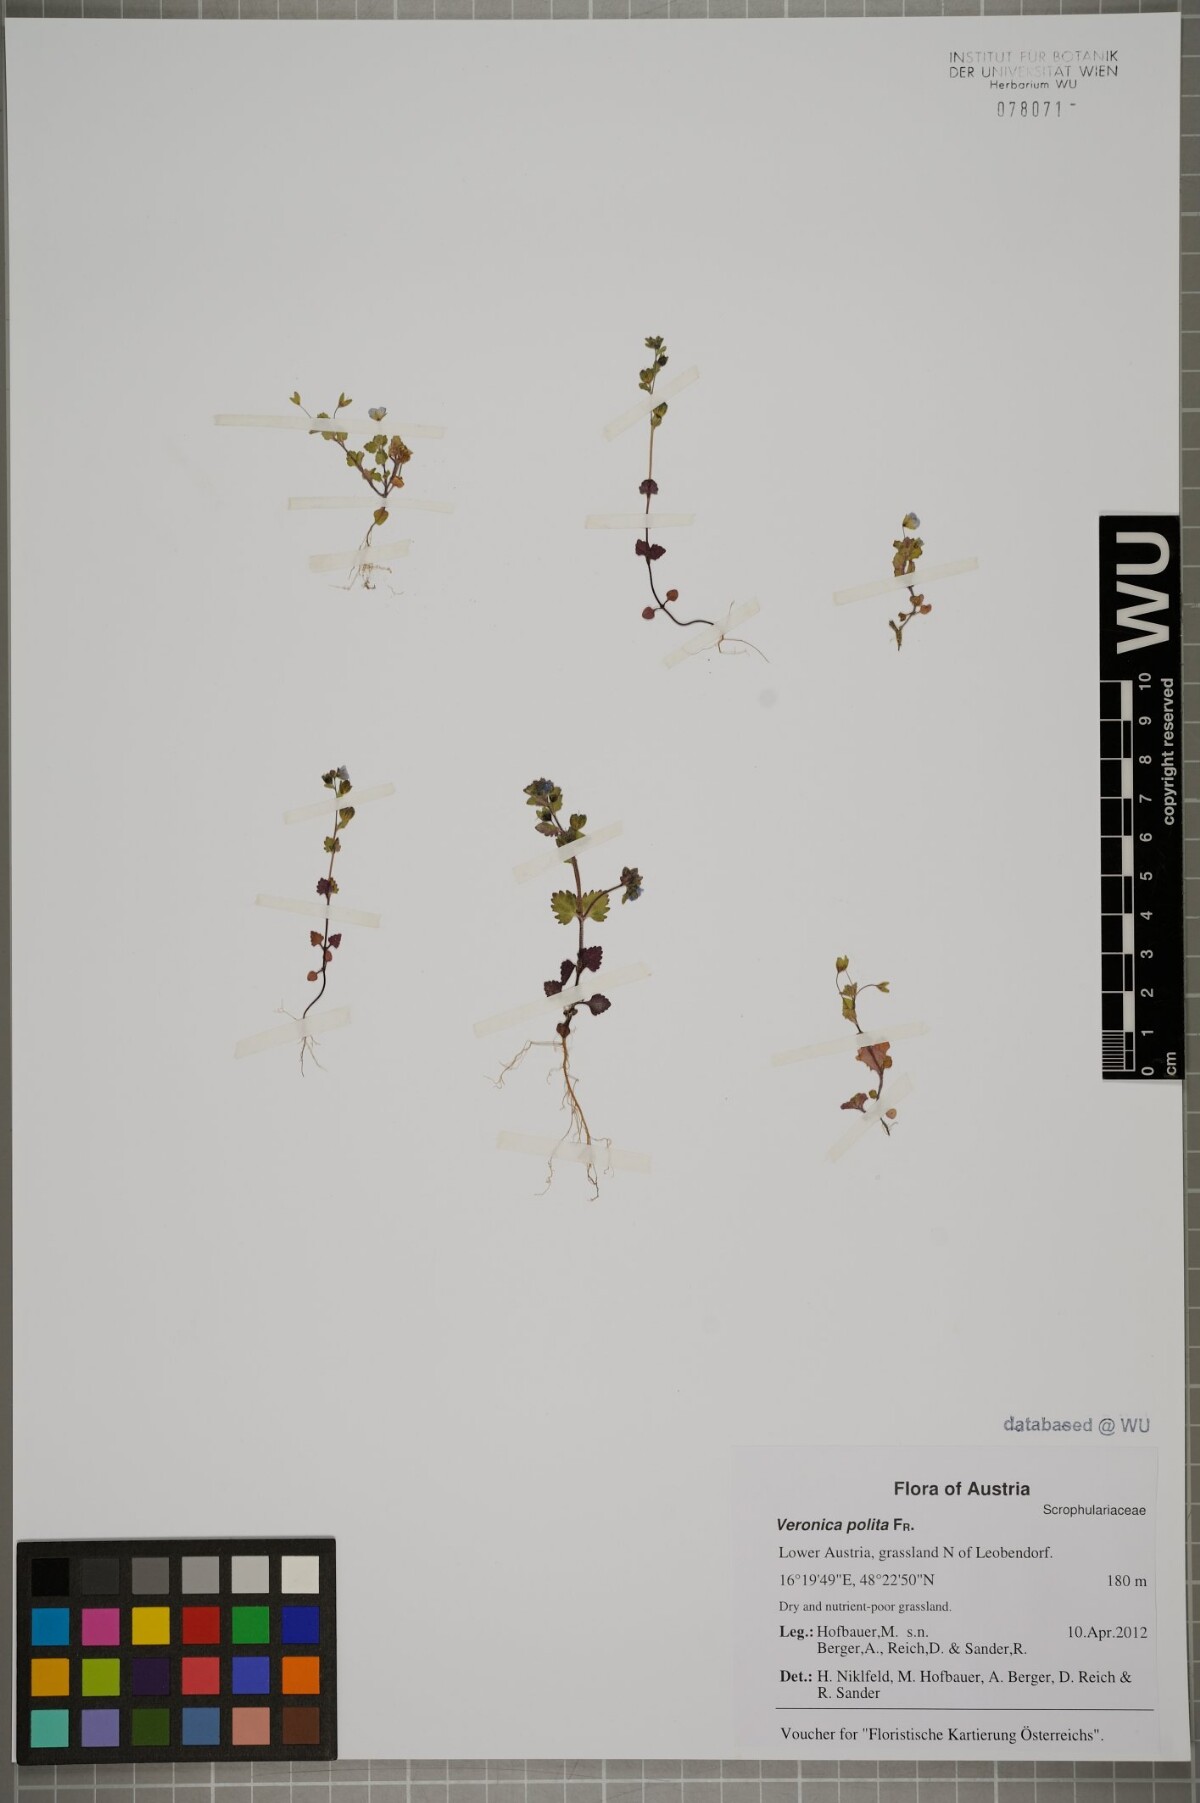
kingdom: Plantae
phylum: Tracheophyta
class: Magnoliopsida
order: Lamiales
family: Plantaginaceae
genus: Veronica
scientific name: Veronica polita
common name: Grey field-speedwell
